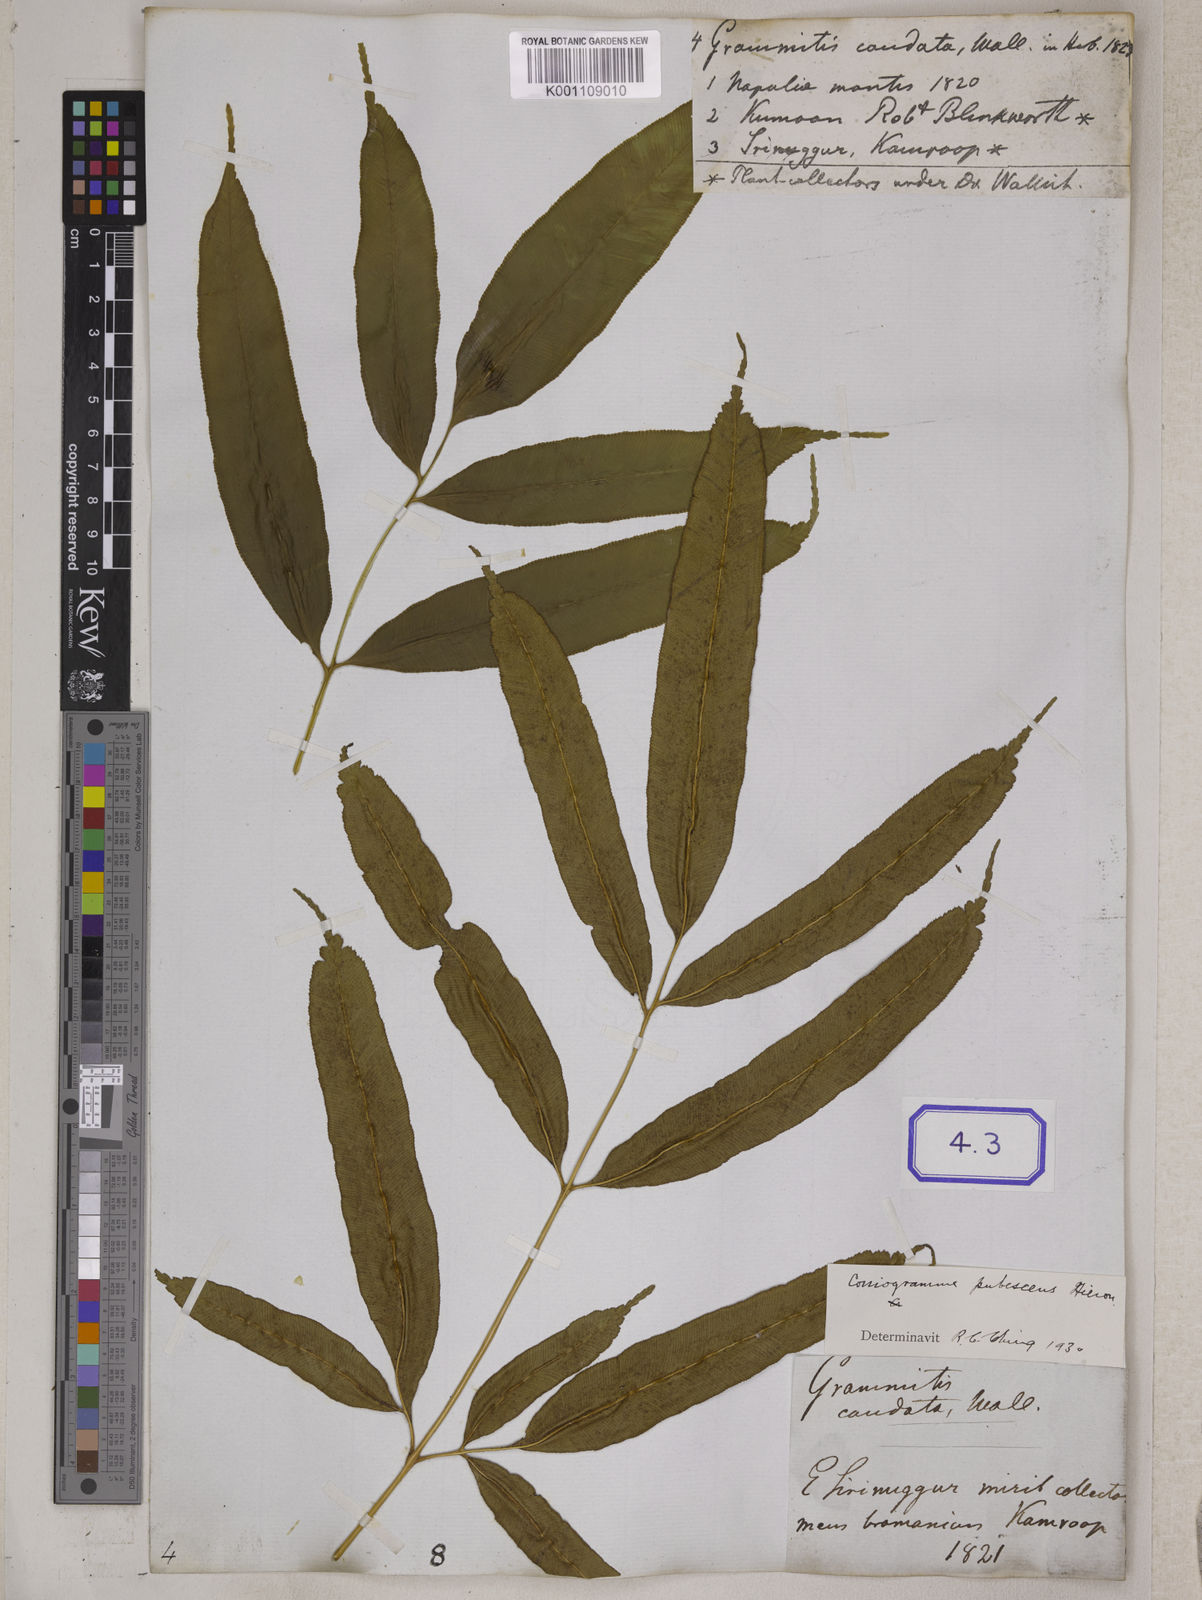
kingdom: Plantae
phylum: Tracheophyta
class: Polypodiopsida
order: Polypodiales
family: Pteridaceae
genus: Coniogramme
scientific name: Coniogramme serrulata
